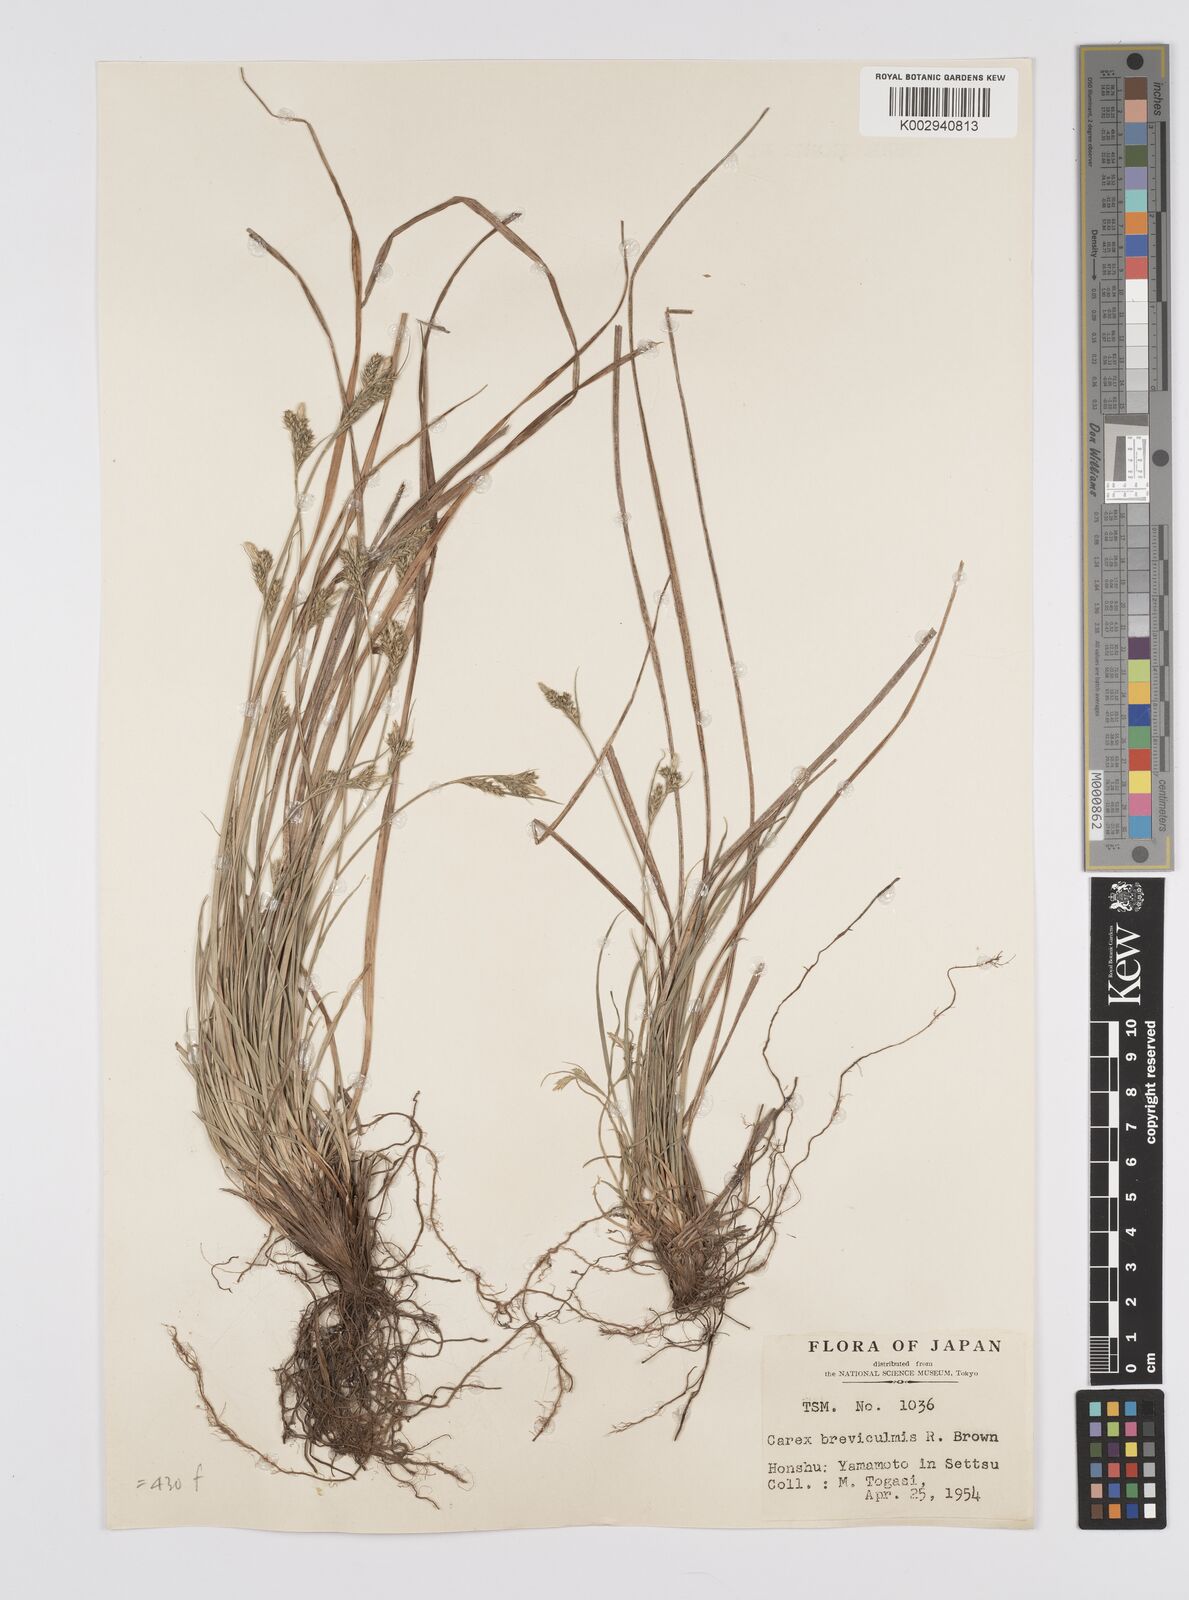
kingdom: Plantae
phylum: Tracheophyta
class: Liliopsida
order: Poales
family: Cyperaceae
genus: Carex
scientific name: Carex breviculmis
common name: Asian shortstem sedge
